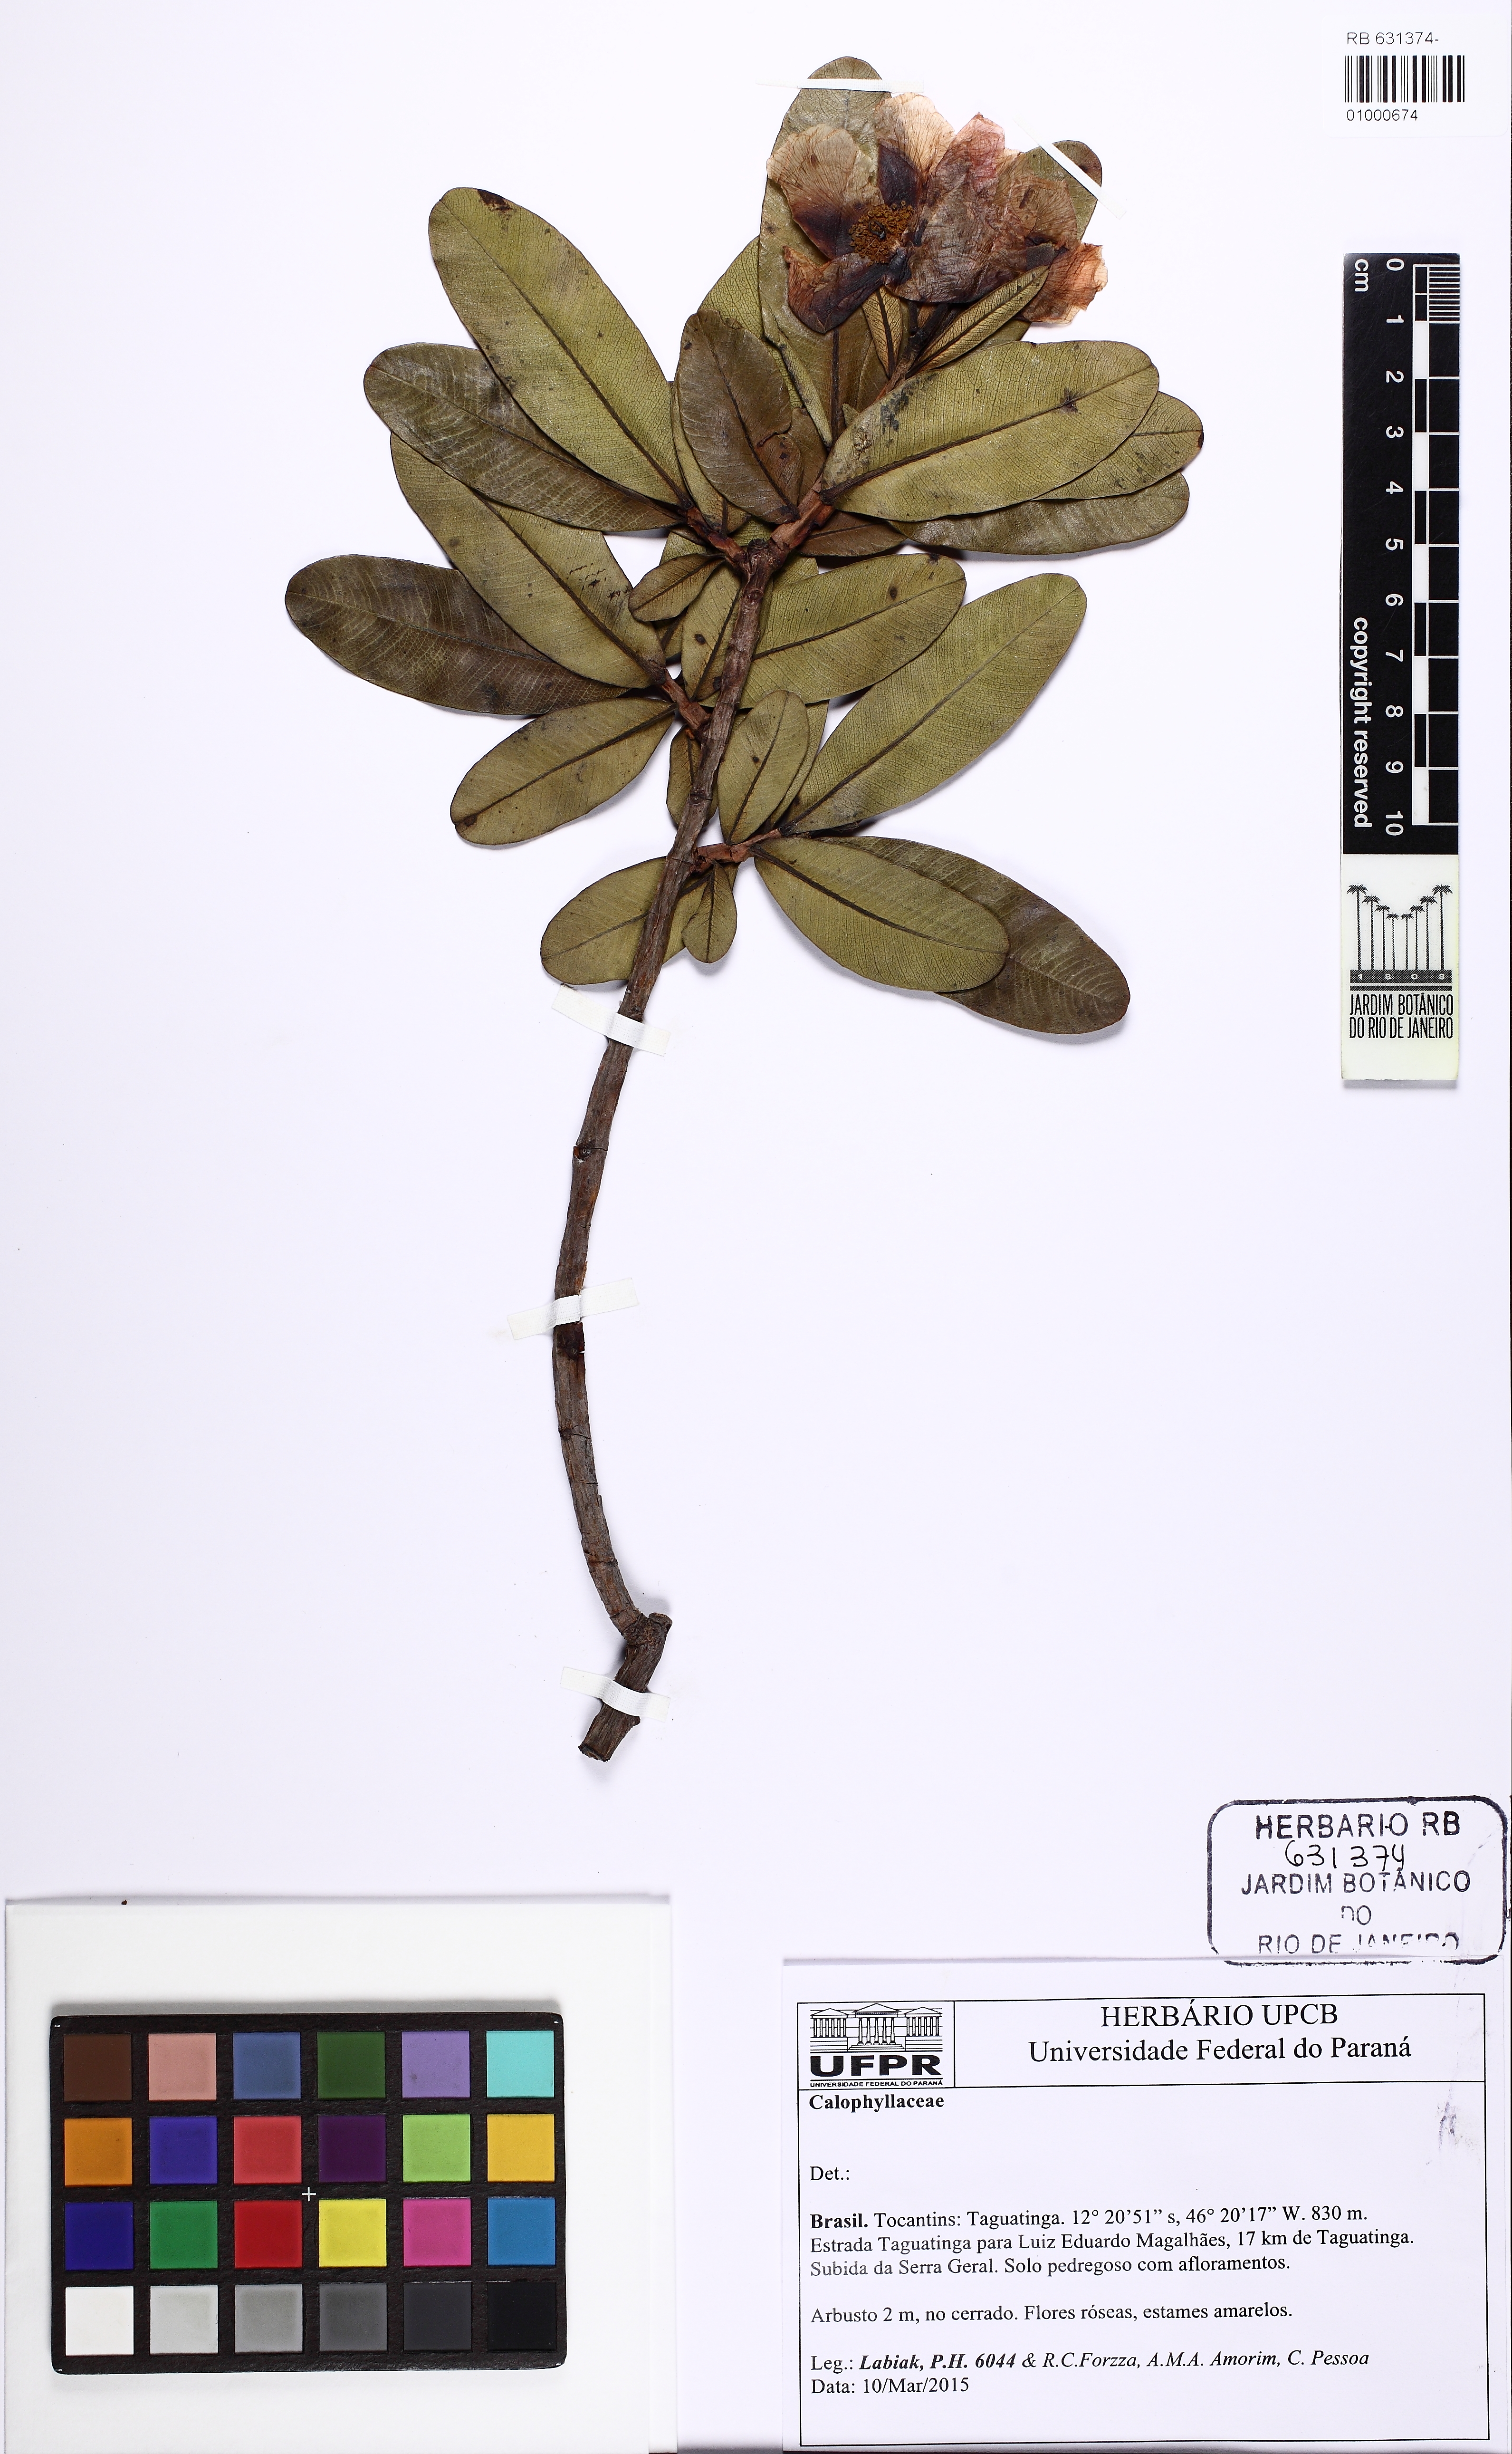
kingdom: Plantae
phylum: Tracheophyta
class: Magnoliopsida
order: Malpighiales
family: Calophyllaceae
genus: Kielmeyera
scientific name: Kielmeyera rubriflora
